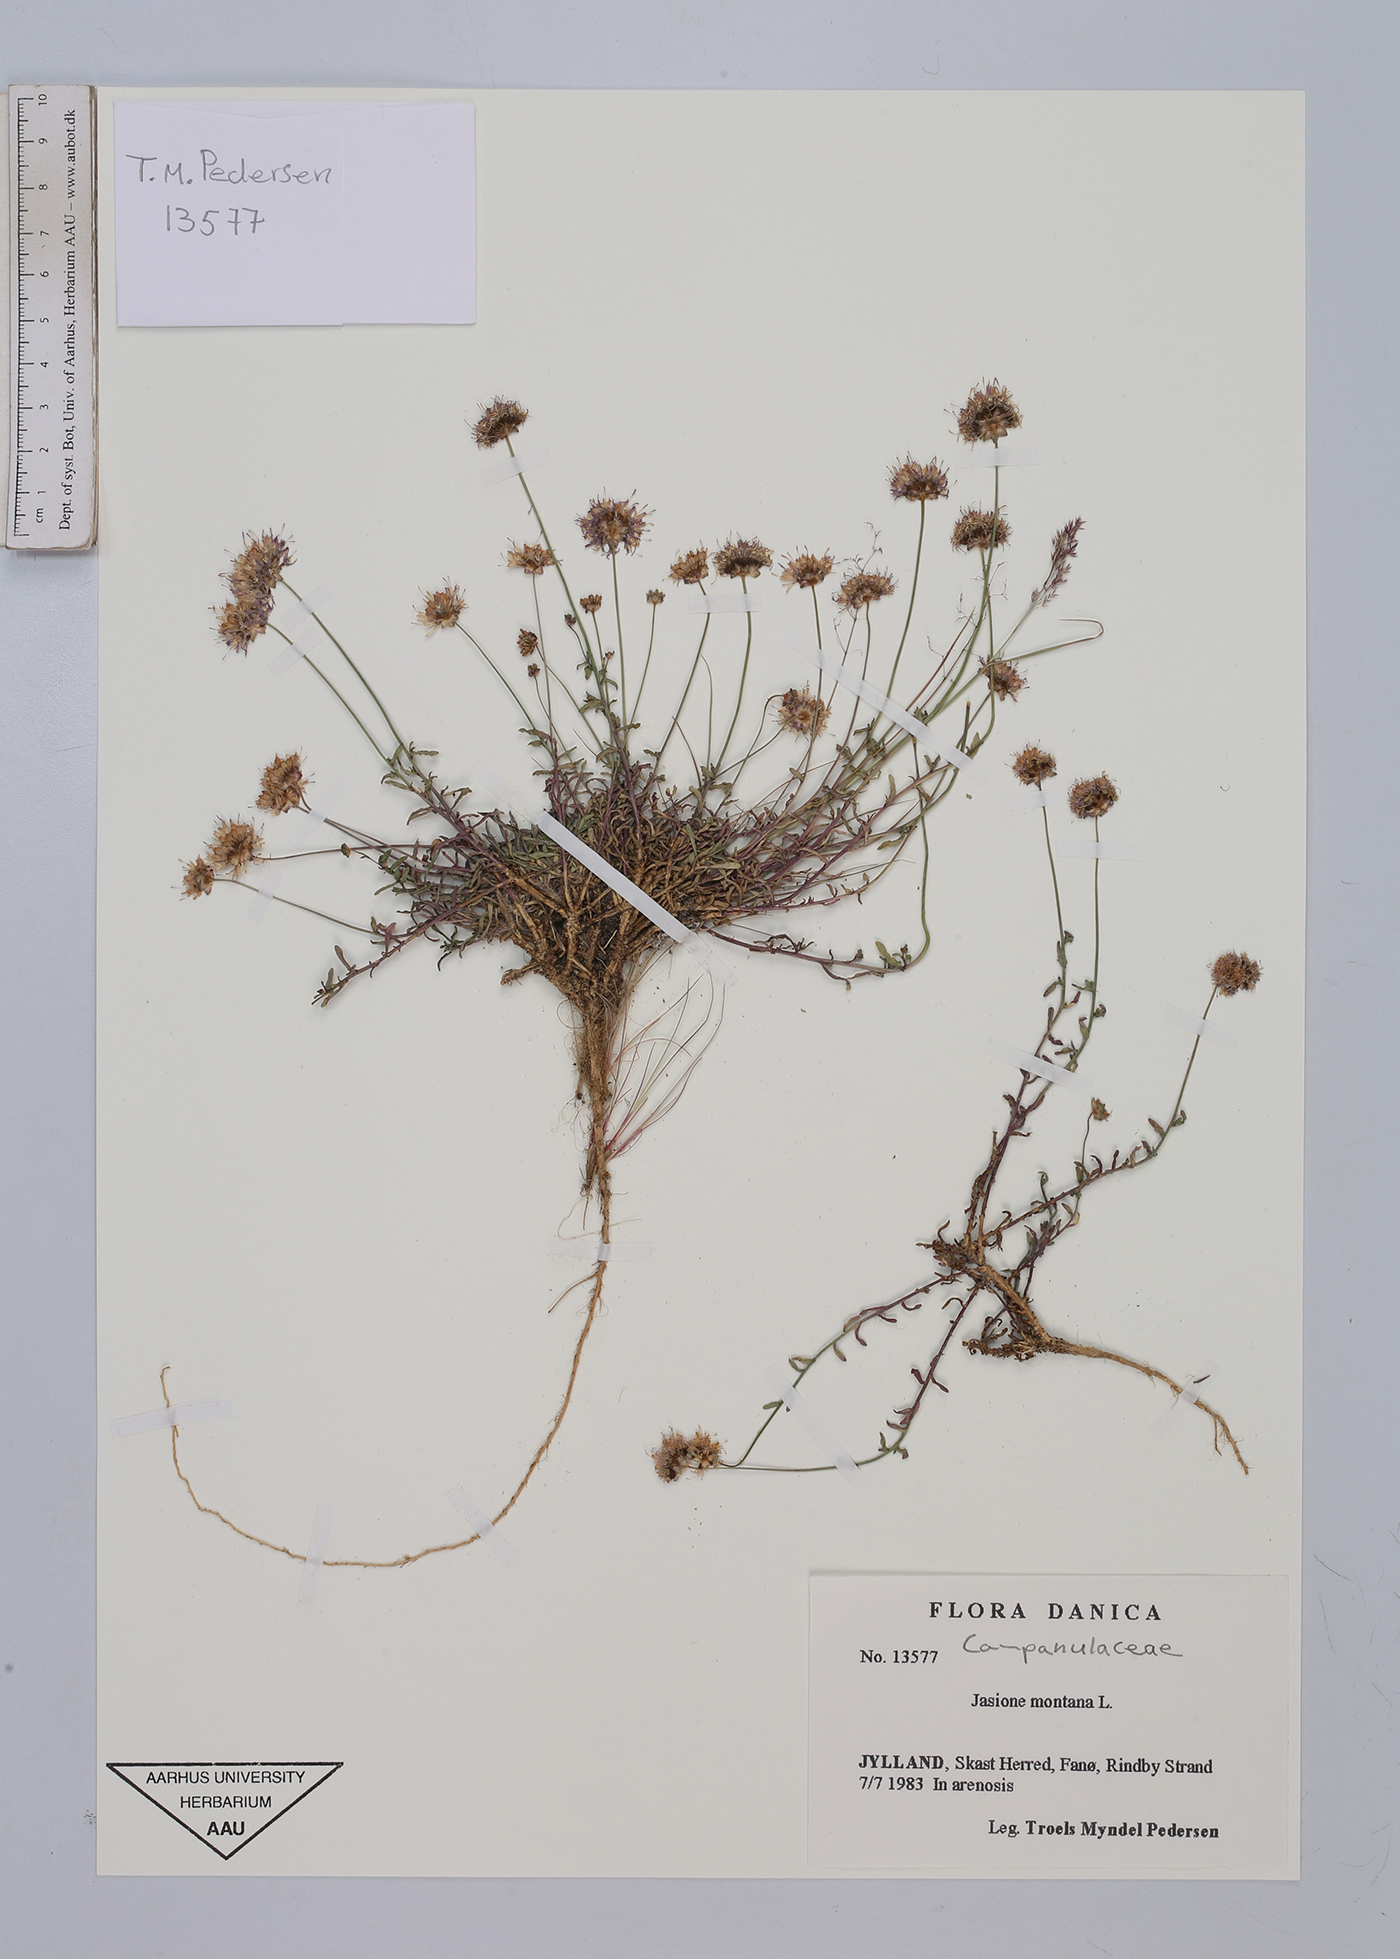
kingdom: Plantae
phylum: Tracheophyta
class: Magnoliopsida
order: Asterales
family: Campanulaceae
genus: Jasione
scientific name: Jasione montana
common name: Sheep's-bit
